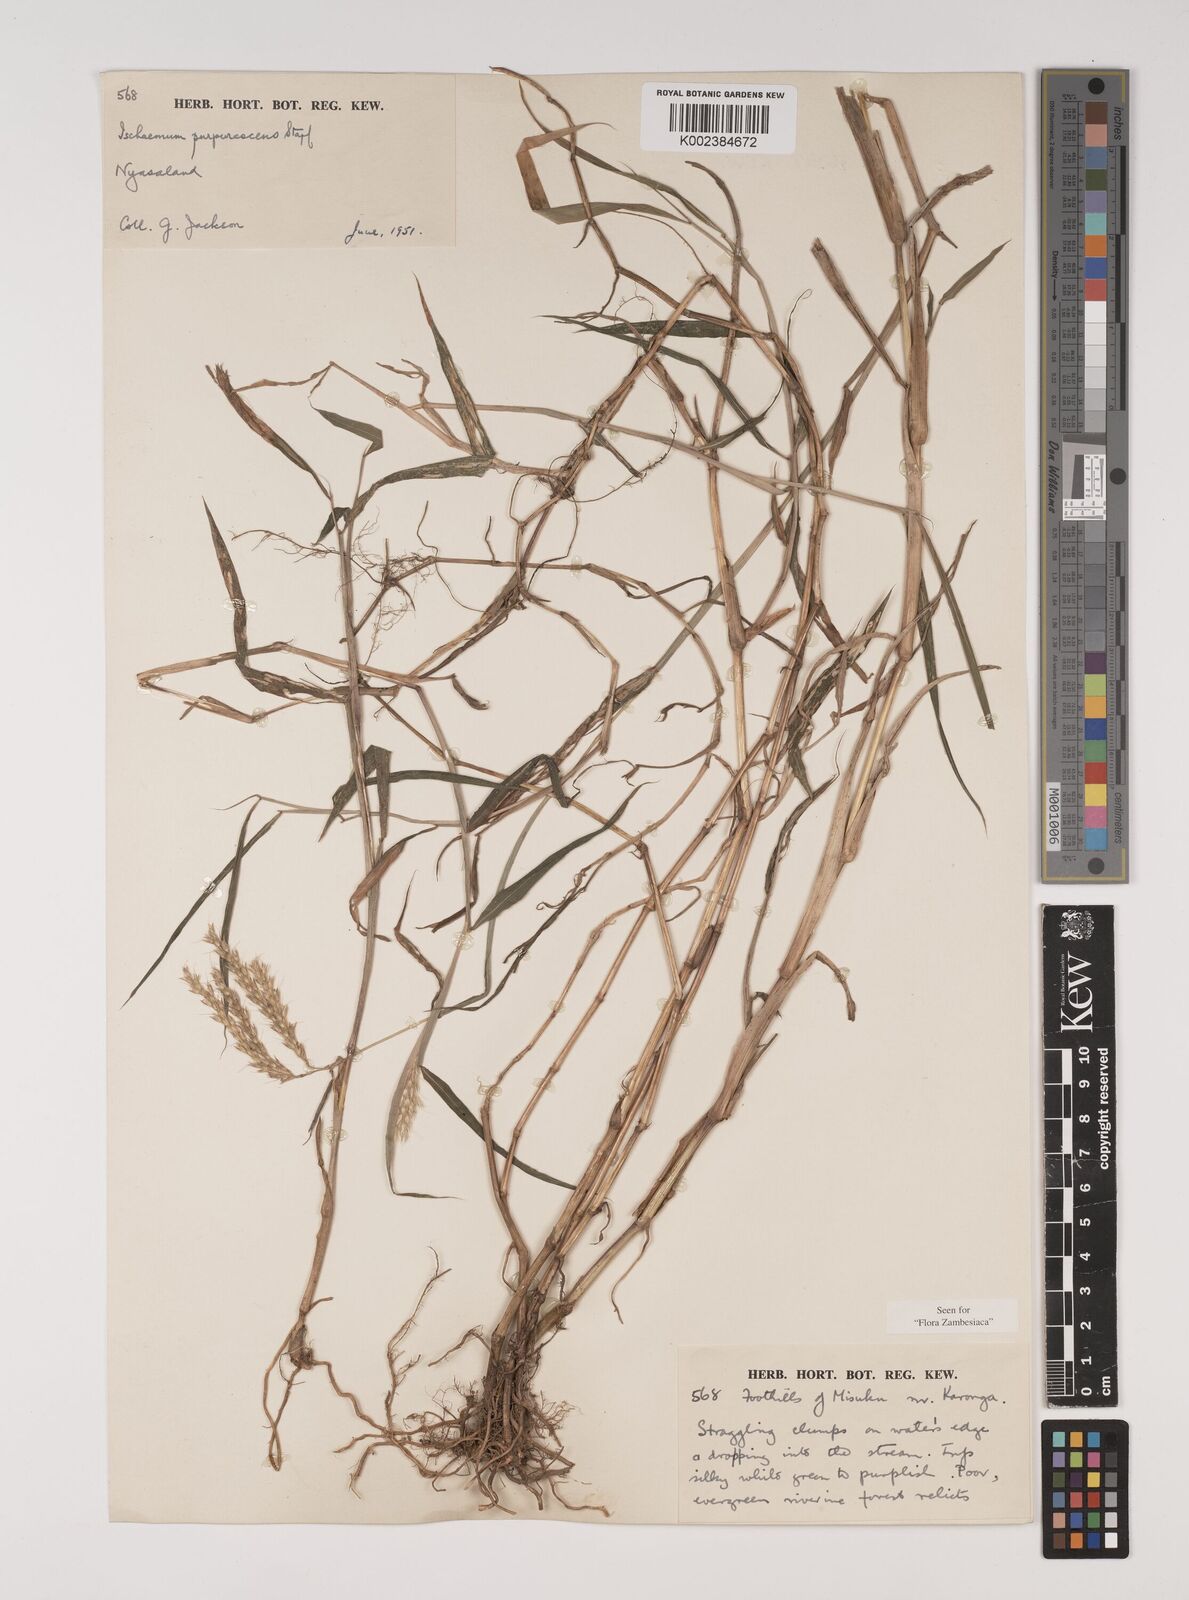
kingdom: Plantae
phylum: Tracheophyta
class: Liliopsida
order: Poales
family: Poaceae
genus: Ischaemum
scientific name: Ischaemum
